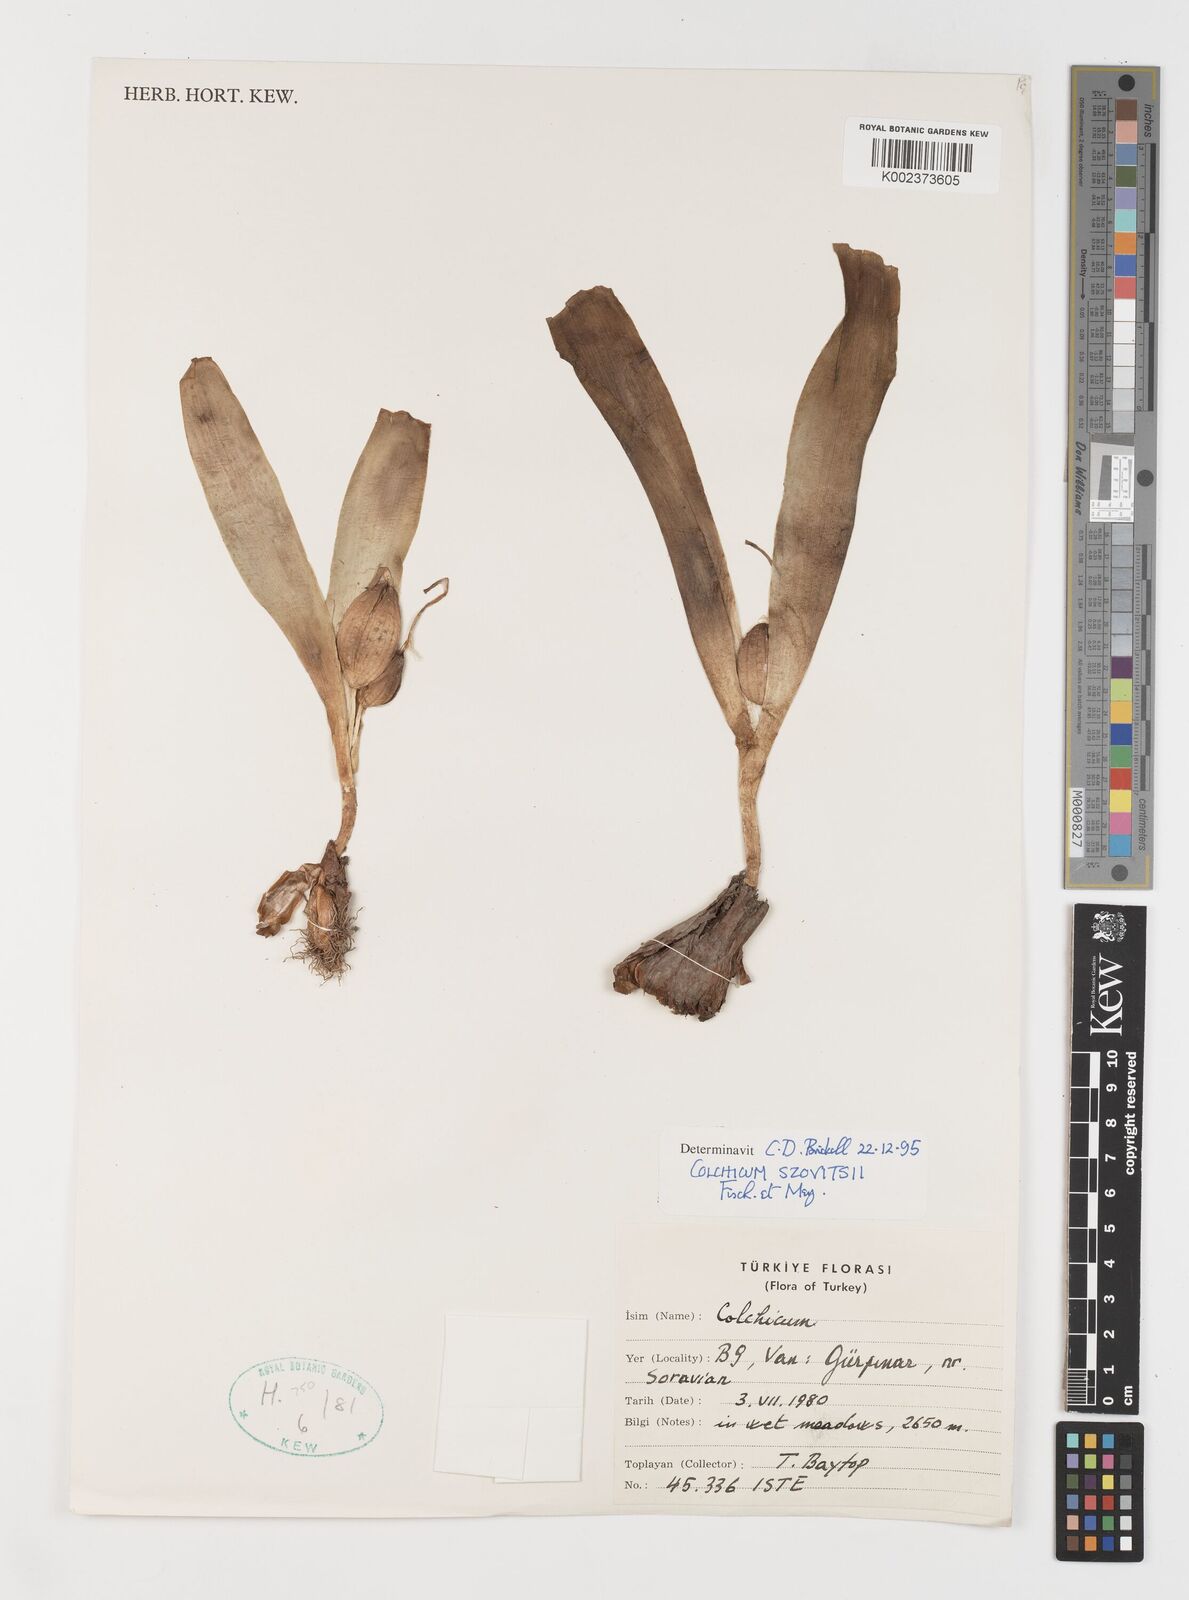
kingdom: Plantae
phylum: Tracheophyta
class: Liliopsida
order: Liliales
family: Colchicaceae
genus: Colchicum
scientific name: Colchicum szovitsii
